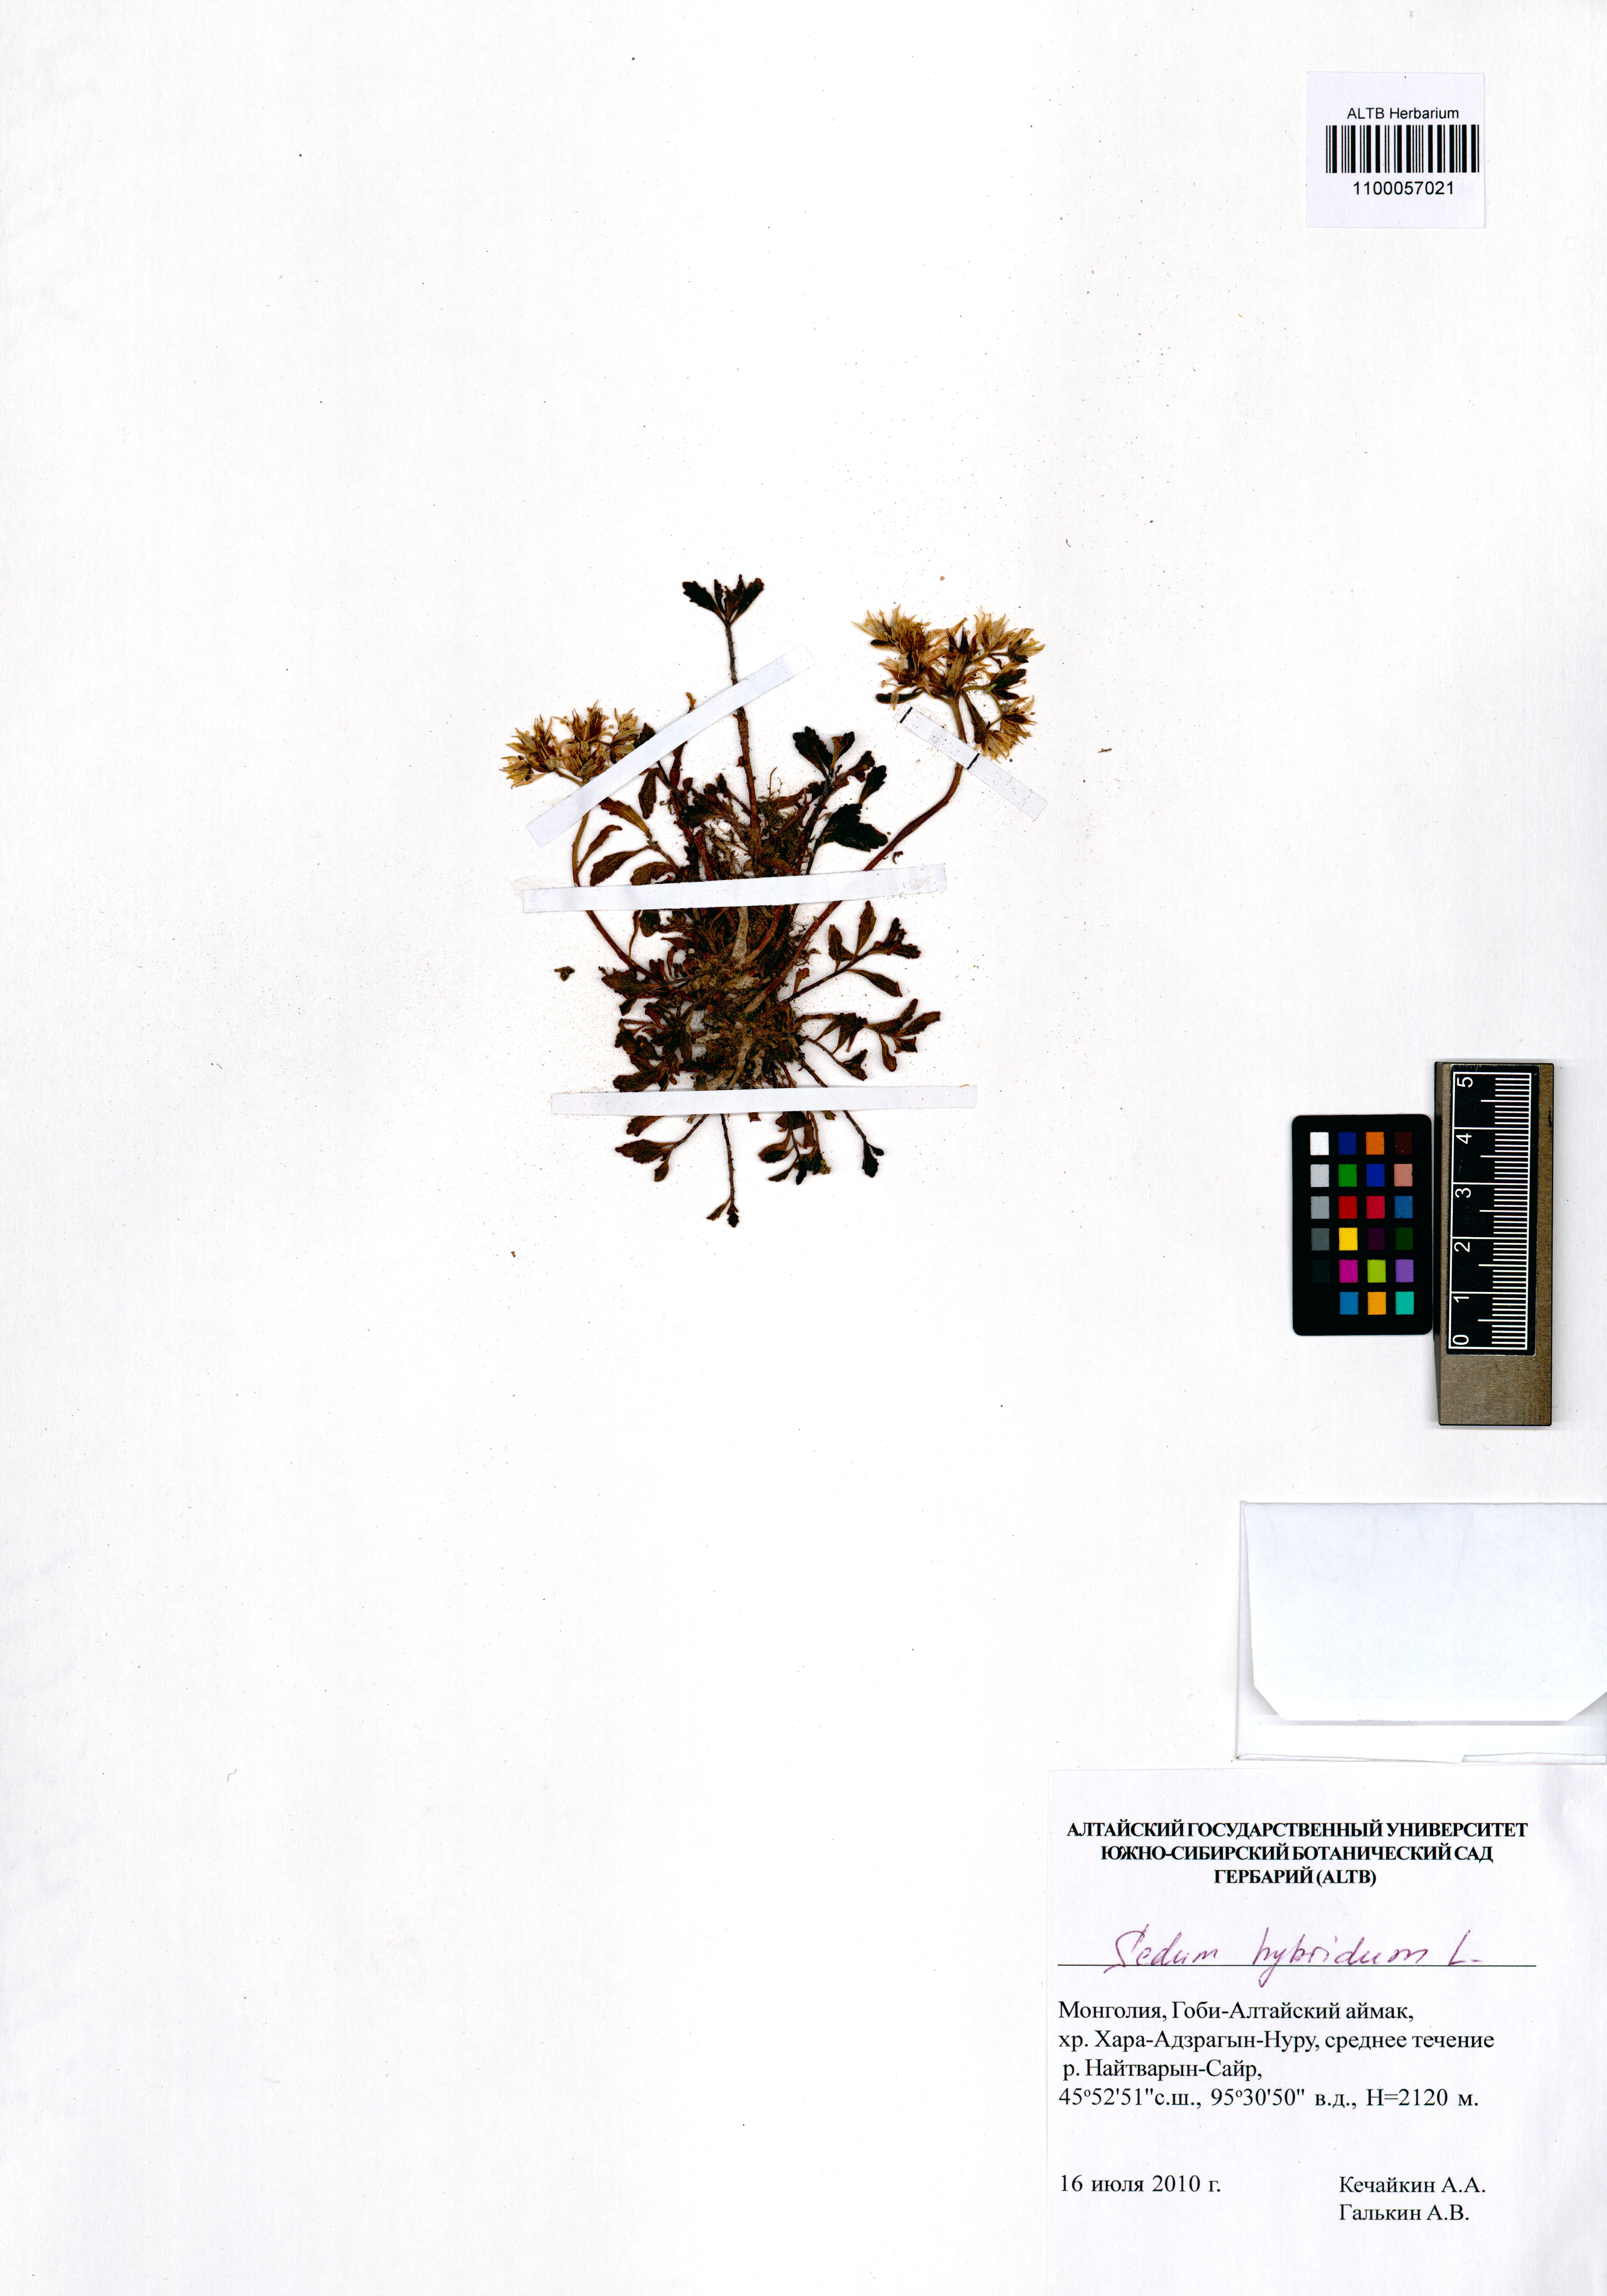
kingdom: Plantae
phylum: Tracheophyta
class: Magnoliopsida
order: Saxifragales
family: Crassulaceae
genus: Phedimus
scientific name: Phedimus hybridus
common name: Hybrid stonecrop
